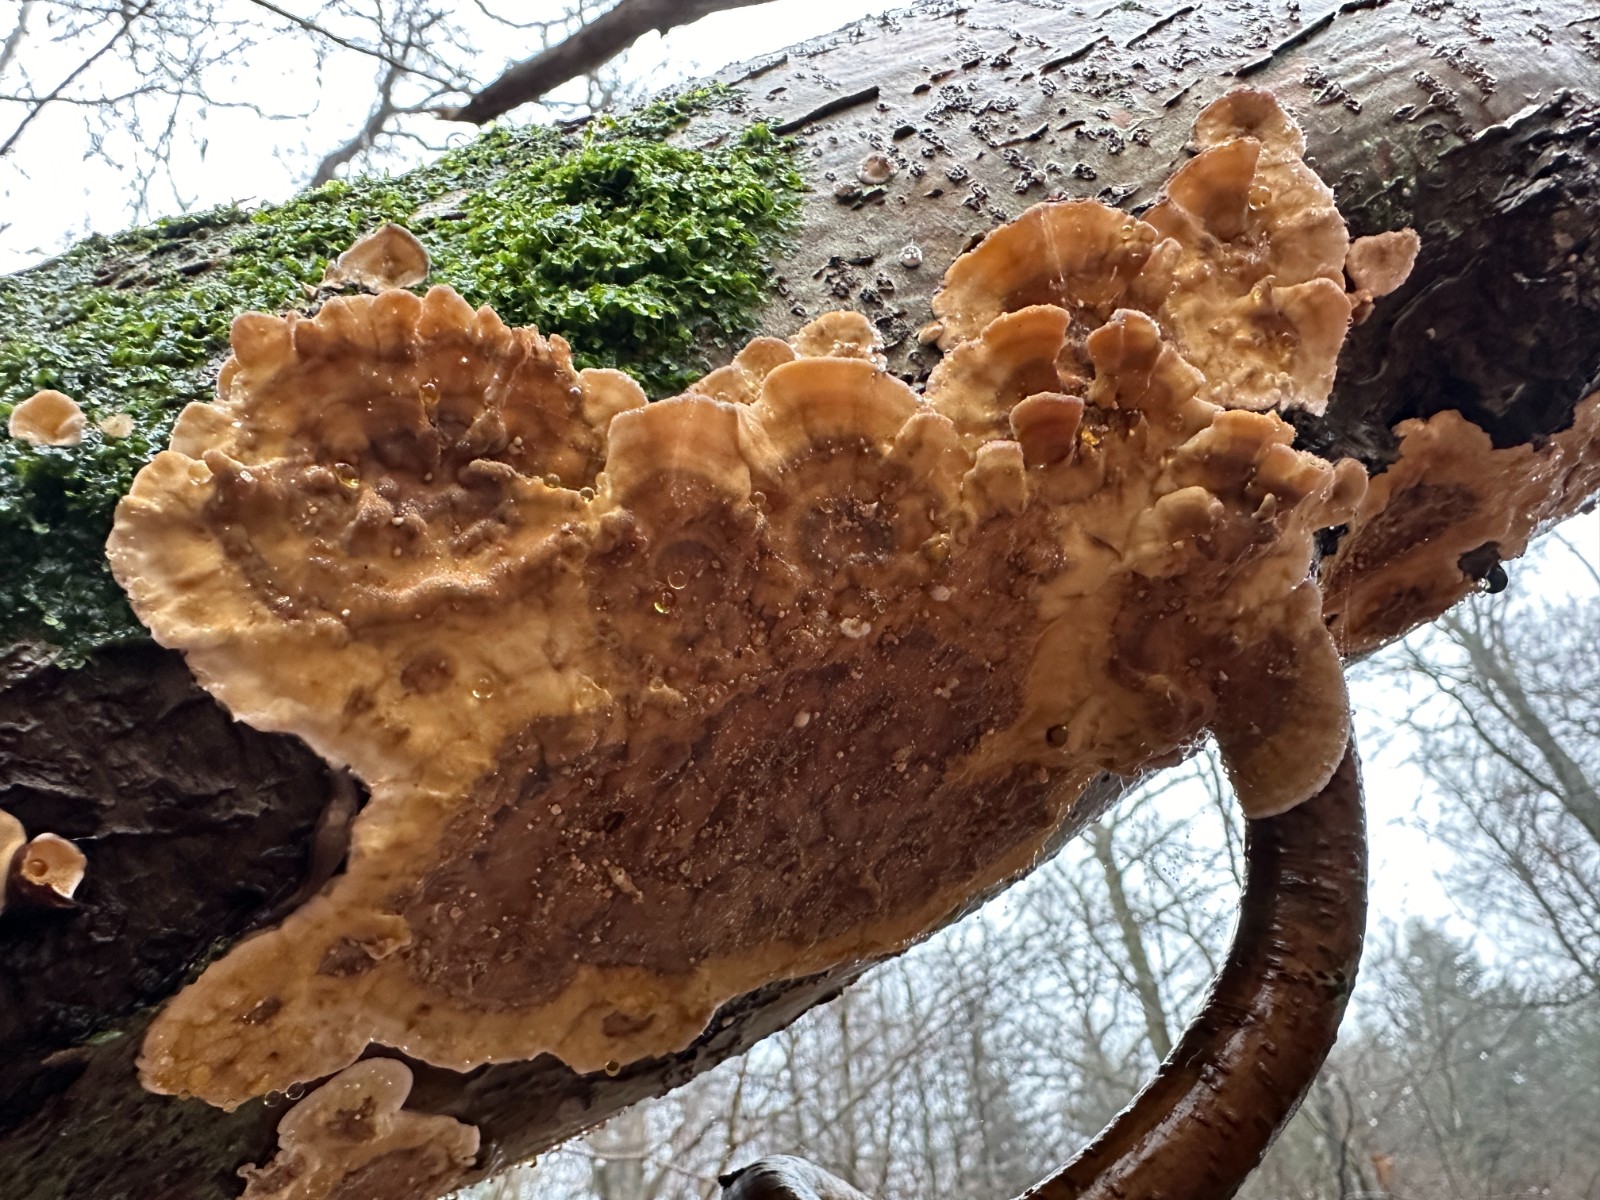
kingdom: Fungi
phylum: Basidiomycota
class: Agaricomycetes
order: Russulales
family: Stereaceae
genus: Stereum
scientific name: Stereum hirsutum
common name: håret lædersvamp
